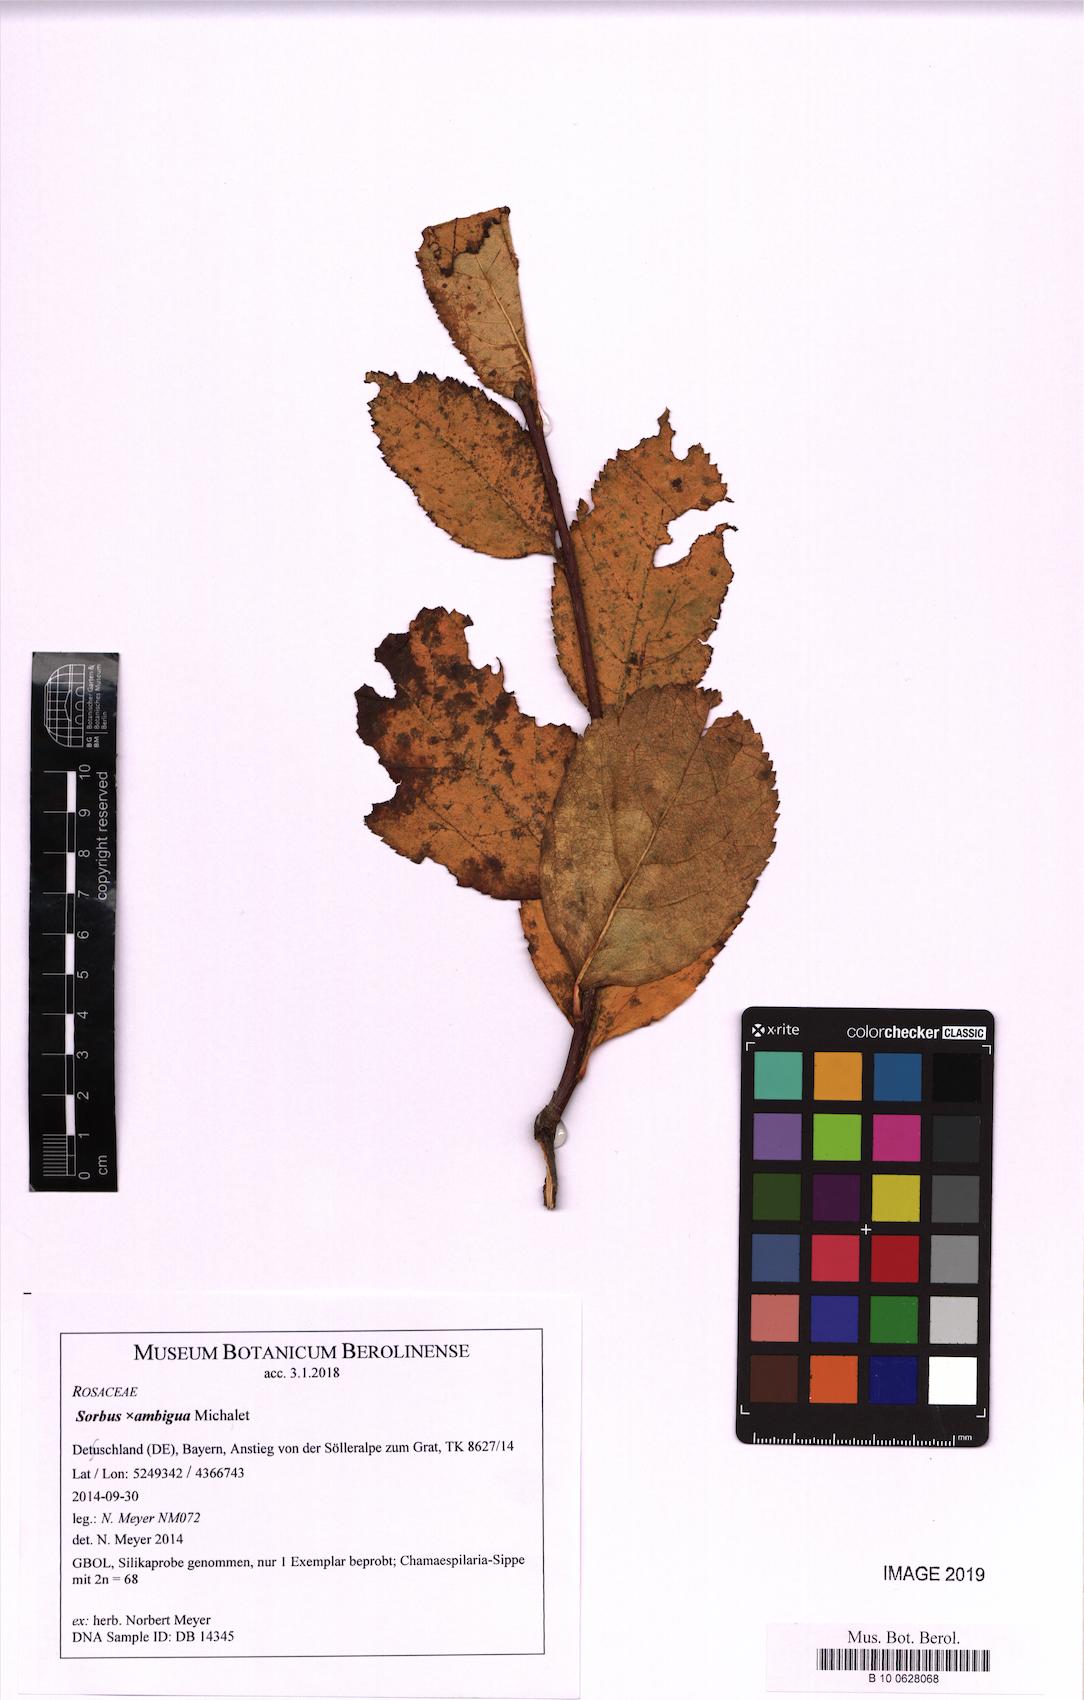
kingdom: Plantae
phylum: Tracheophyta
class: Magnoliopsida
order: Rosales
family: Rosaceae
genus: Majovskya
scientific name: Majovskya ambigua
